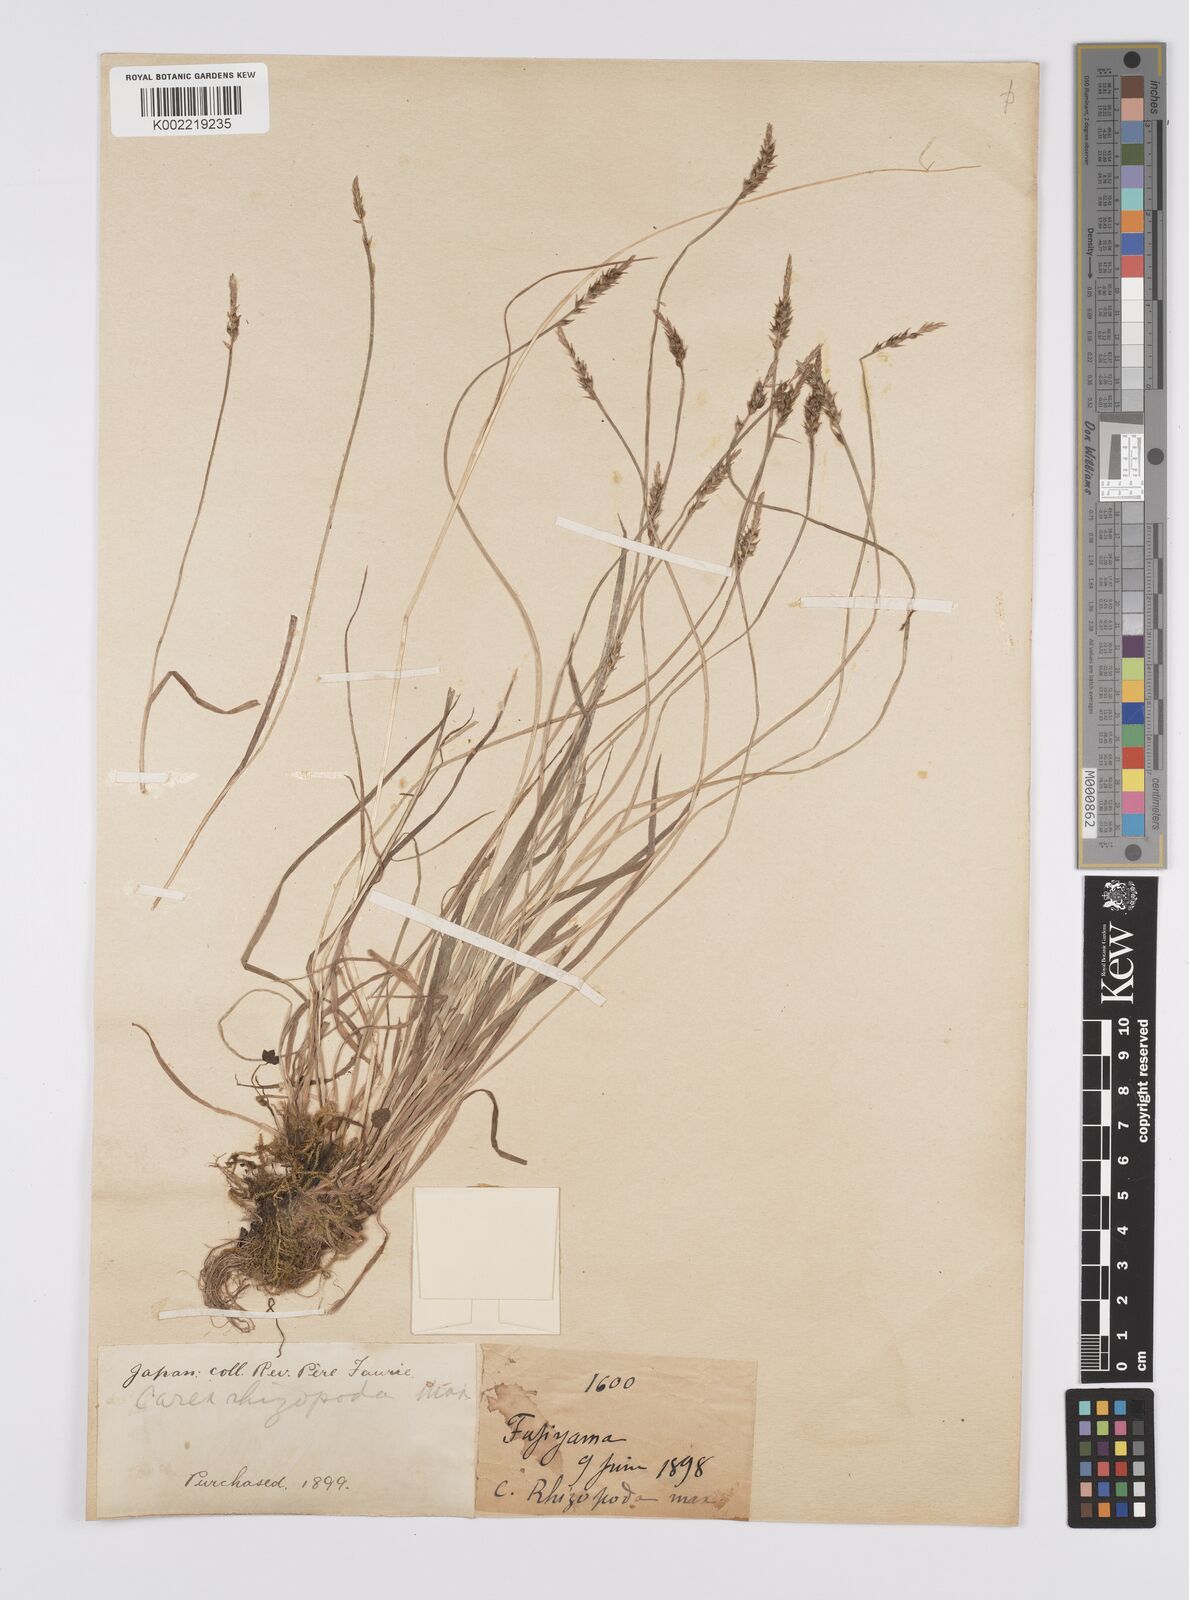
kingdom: Plantae
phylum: Tracheophyta
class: Liliopsida
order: Poales
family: Cyperaceae
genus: Carex
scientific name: Carex rhizopoda
